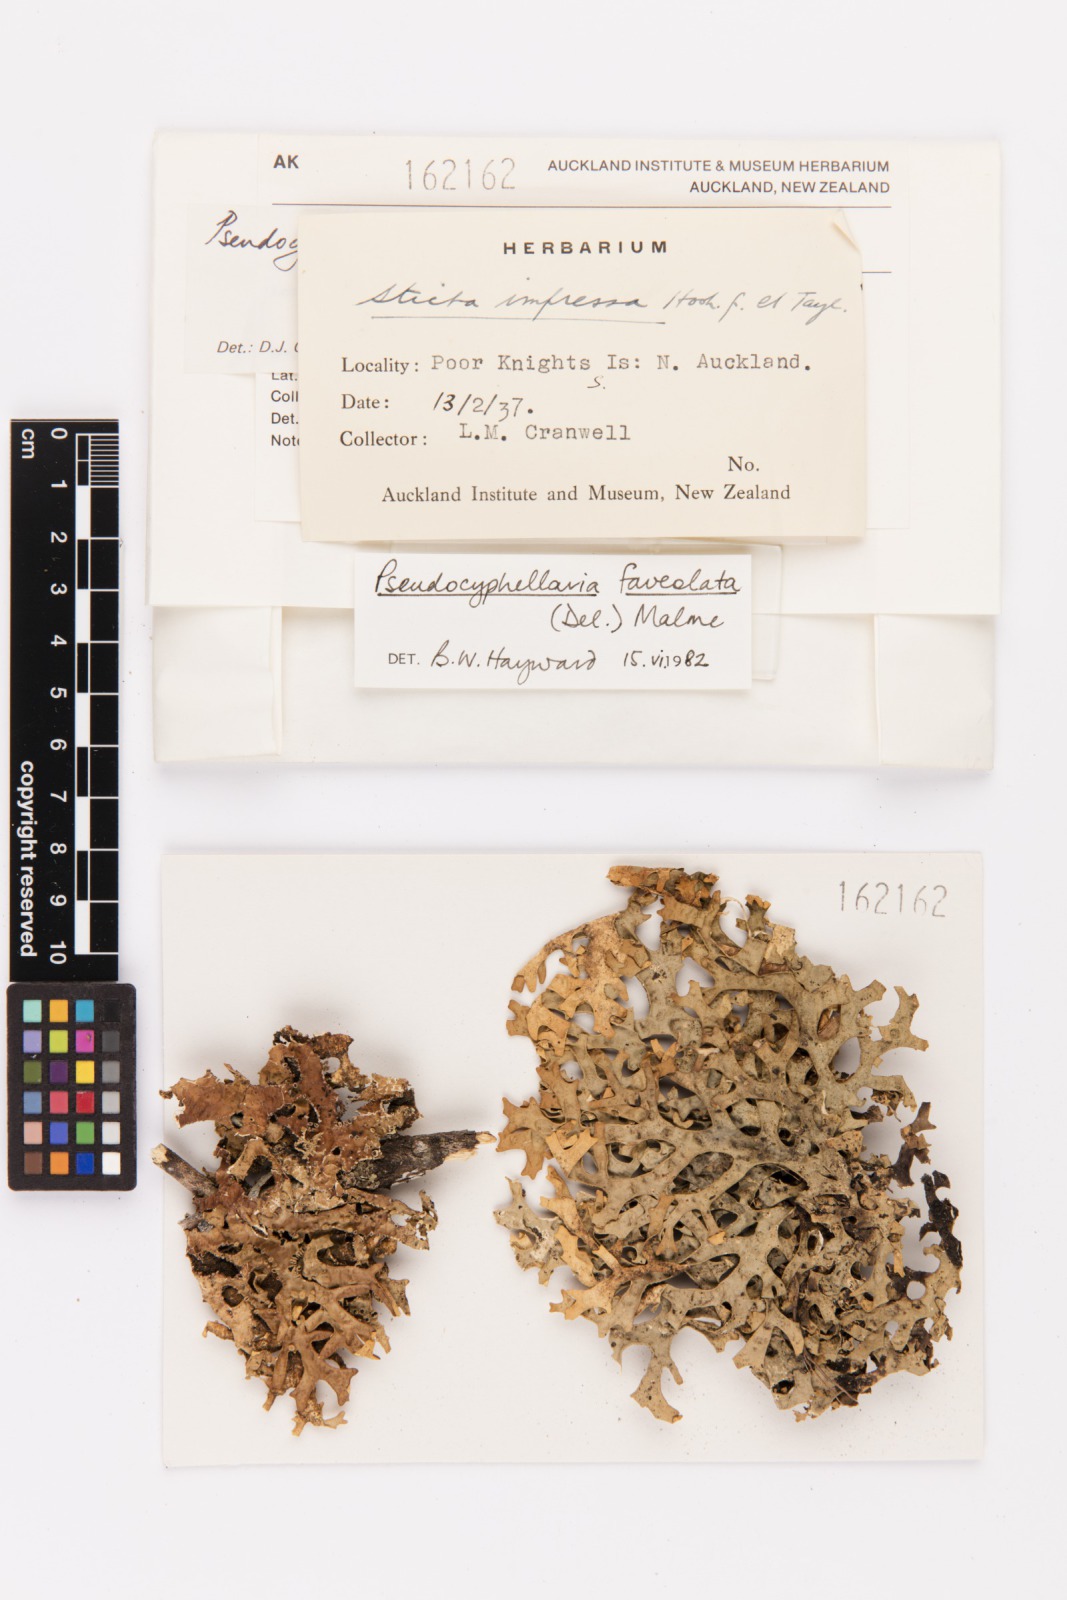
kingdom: Fungi
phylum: Ascomycota
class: Lecanoromycetes
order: Peltigerales
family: Lobariaceae
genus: Pseudocyphellaria
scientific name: Pseudocyphellaria carpoloma
